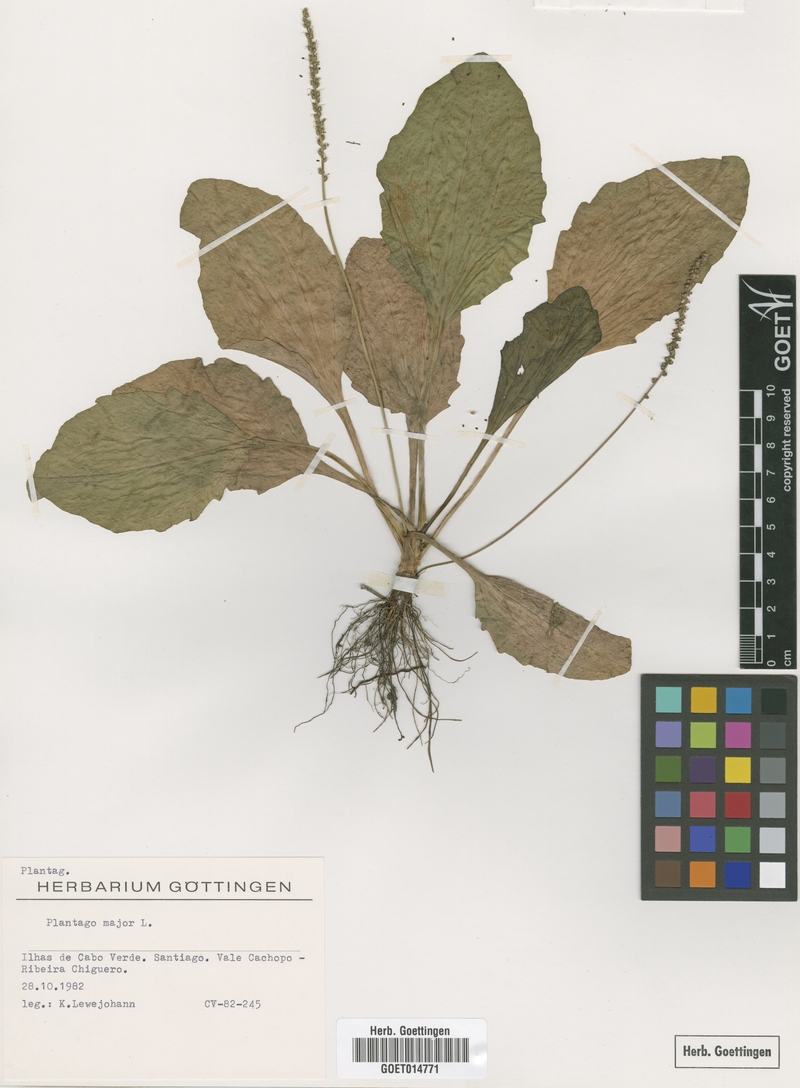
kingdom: Plantae
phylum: Tracheophyta
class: Magnoliopsida
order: Lamiales
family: Plantaginaceae
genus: Plantago
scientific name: Plantago major
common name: Common plantain
